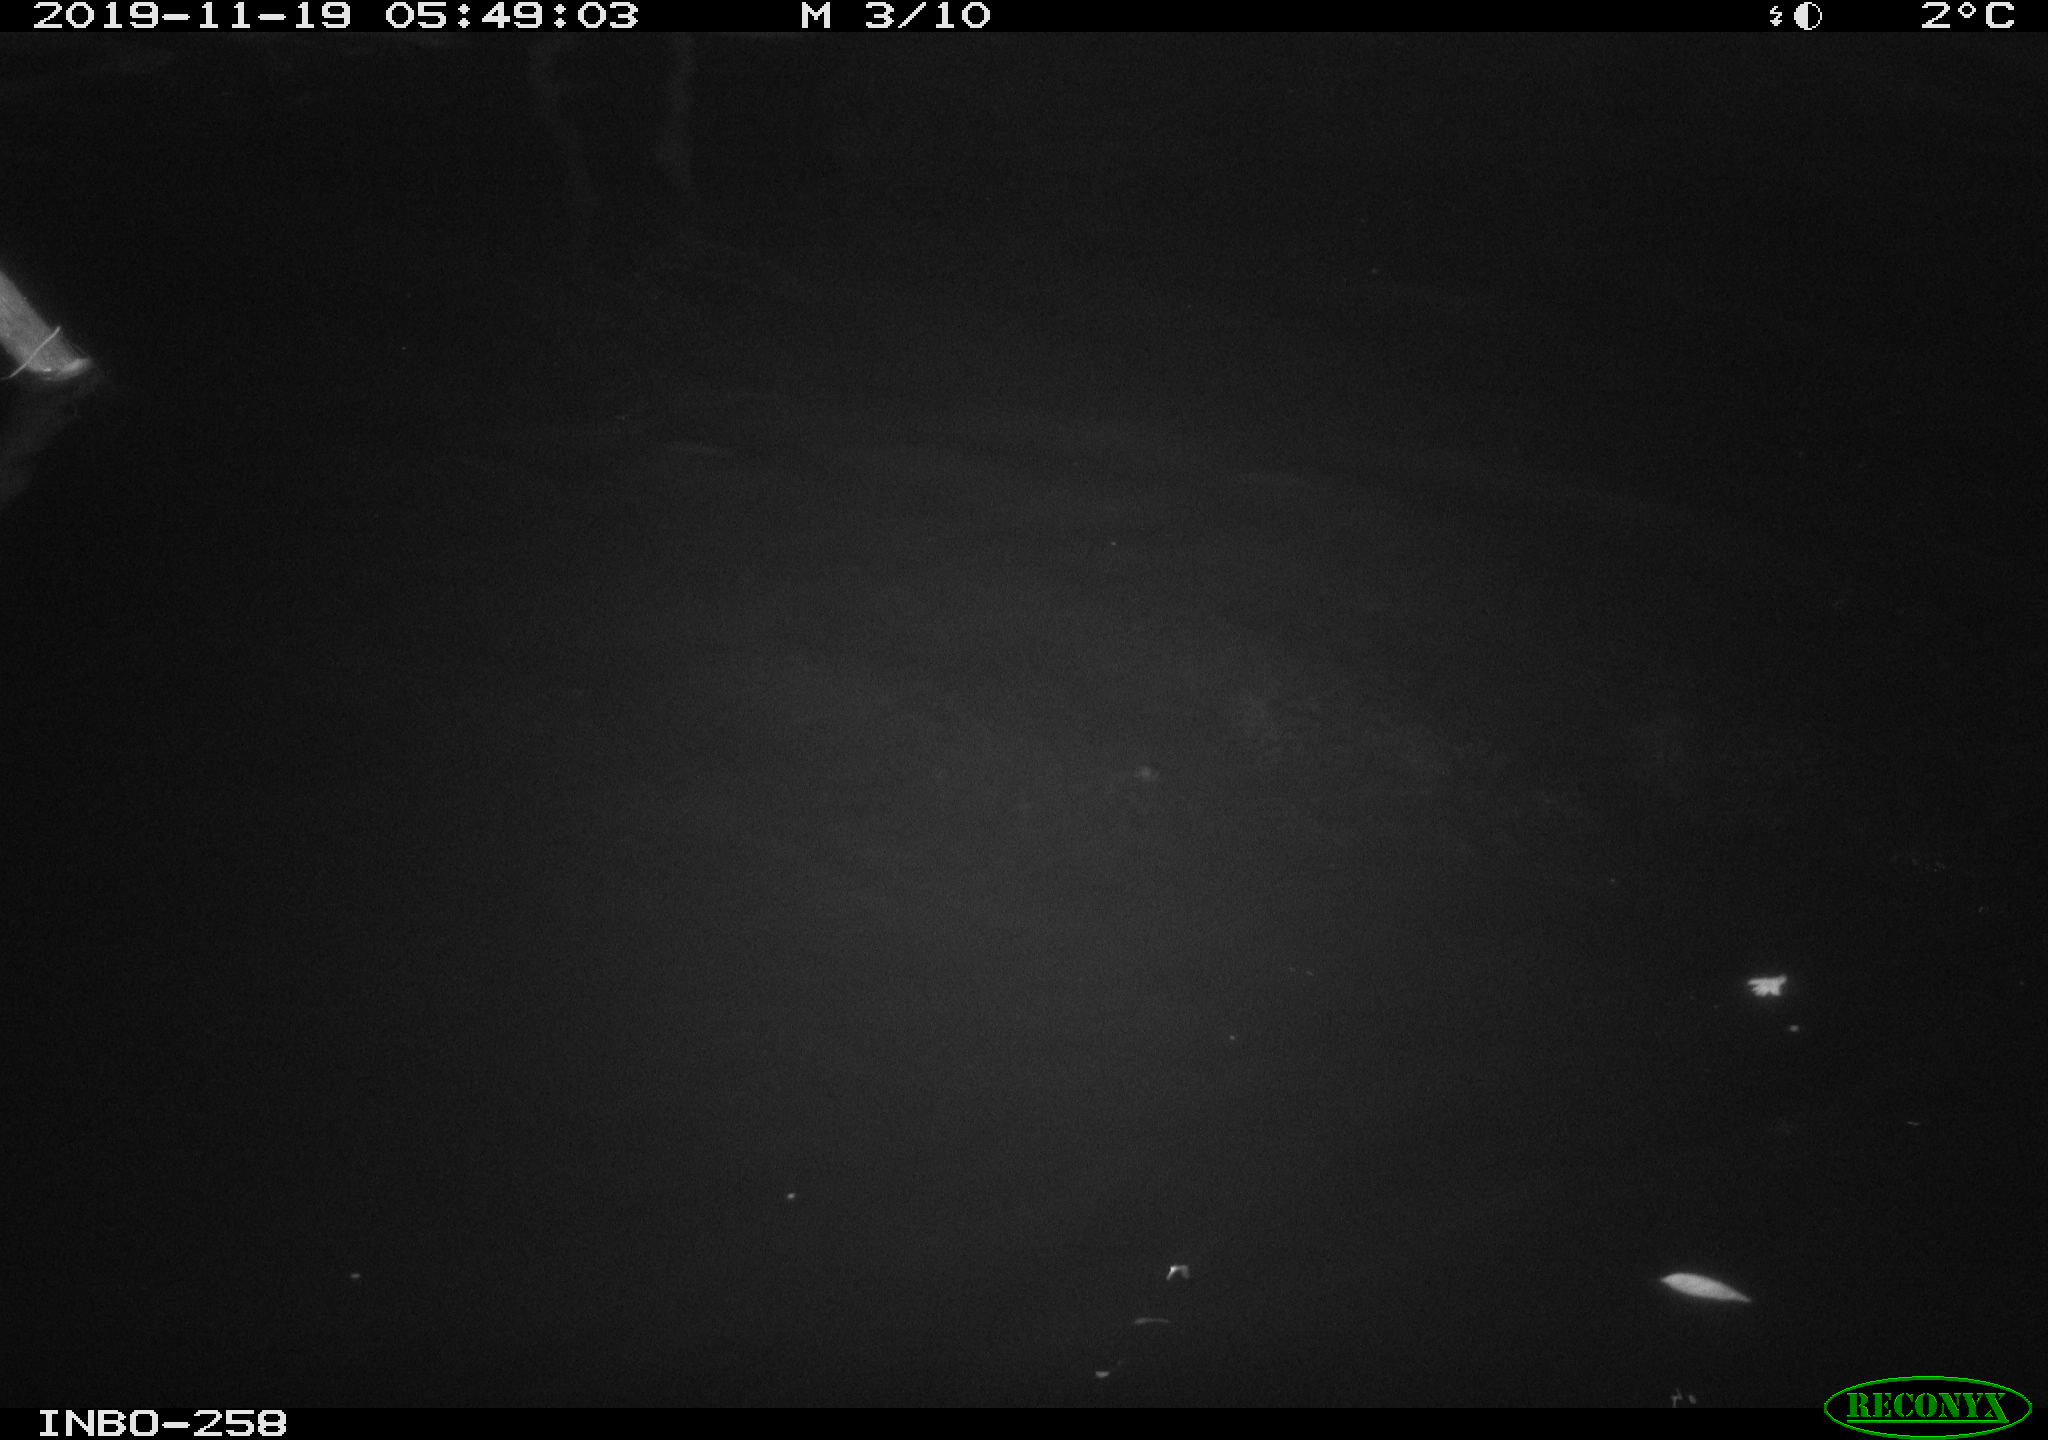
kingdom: Animalia
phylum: Chordata
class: Mammalia
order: Rodentia
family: Cricetidae
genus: Ondatra
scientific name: Ondatra zibethicus
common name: Muskrat
